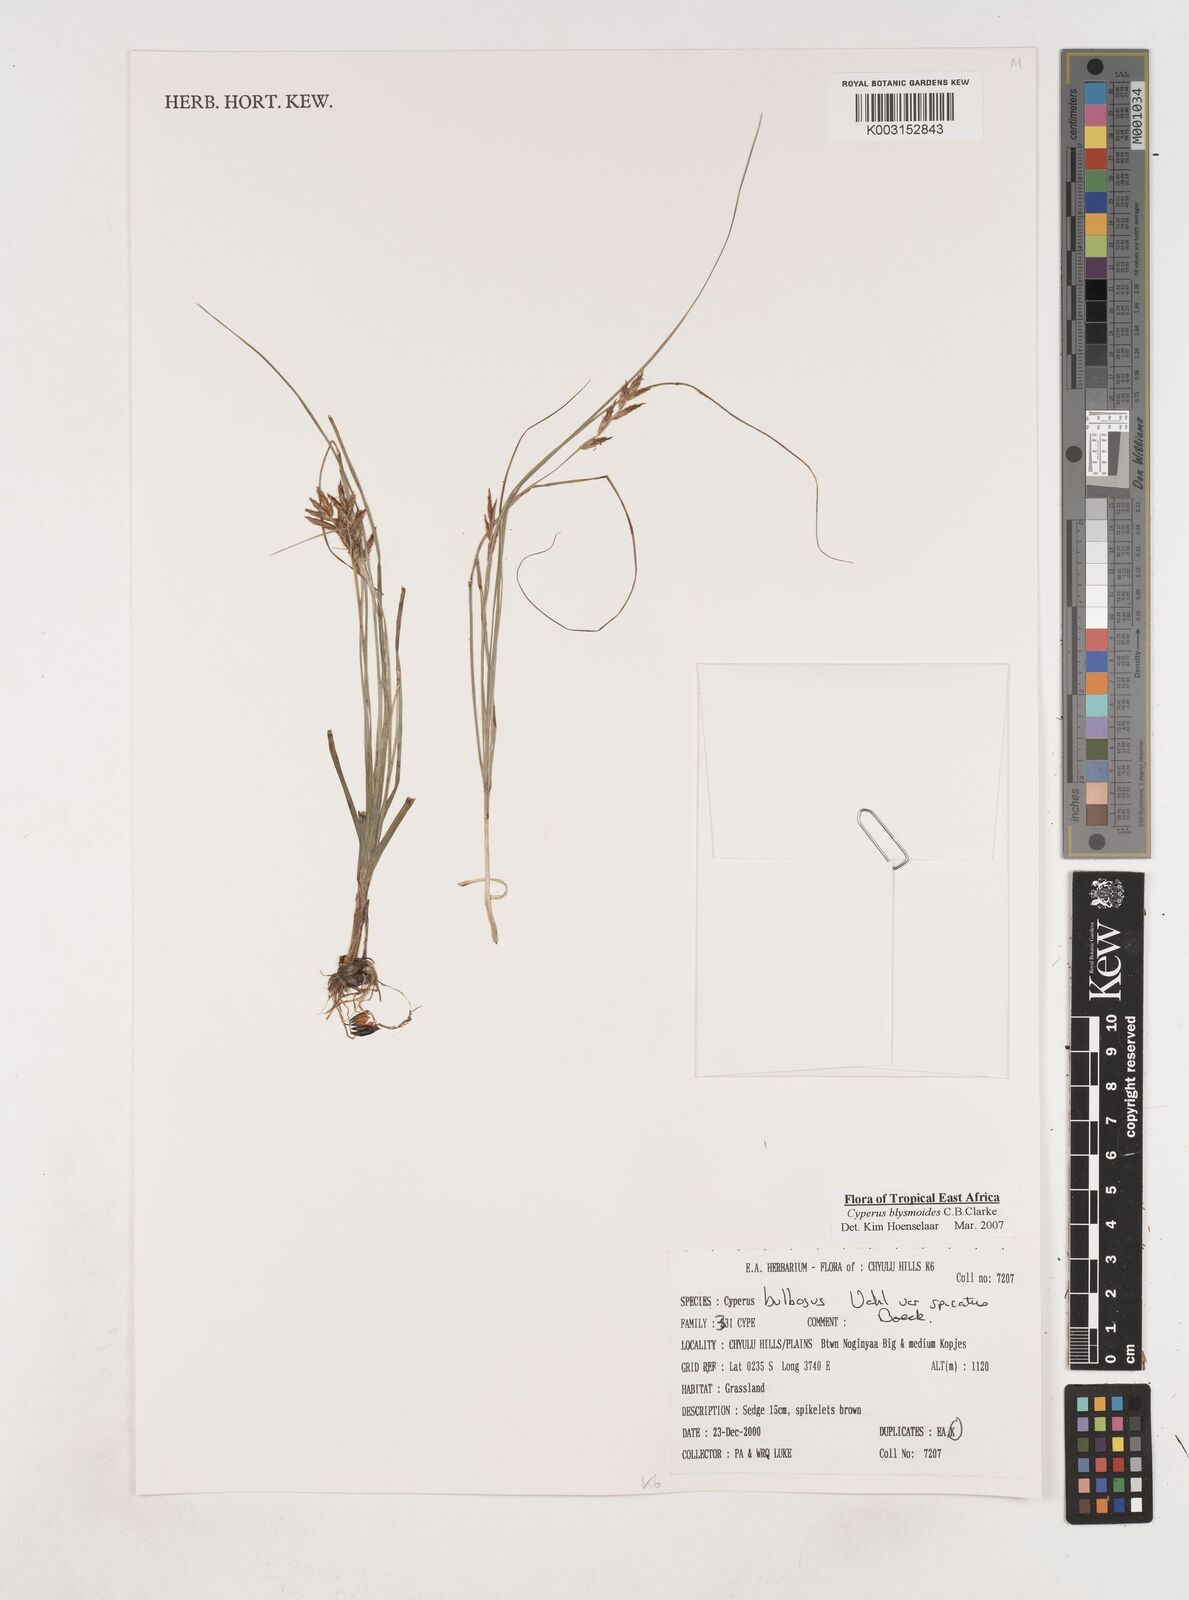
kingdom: Plantae
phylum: Tracheophyta
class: Liliopsida
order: Poales
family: Cyperaceae
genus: Cyperus
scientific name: Cyperus blysmoides
